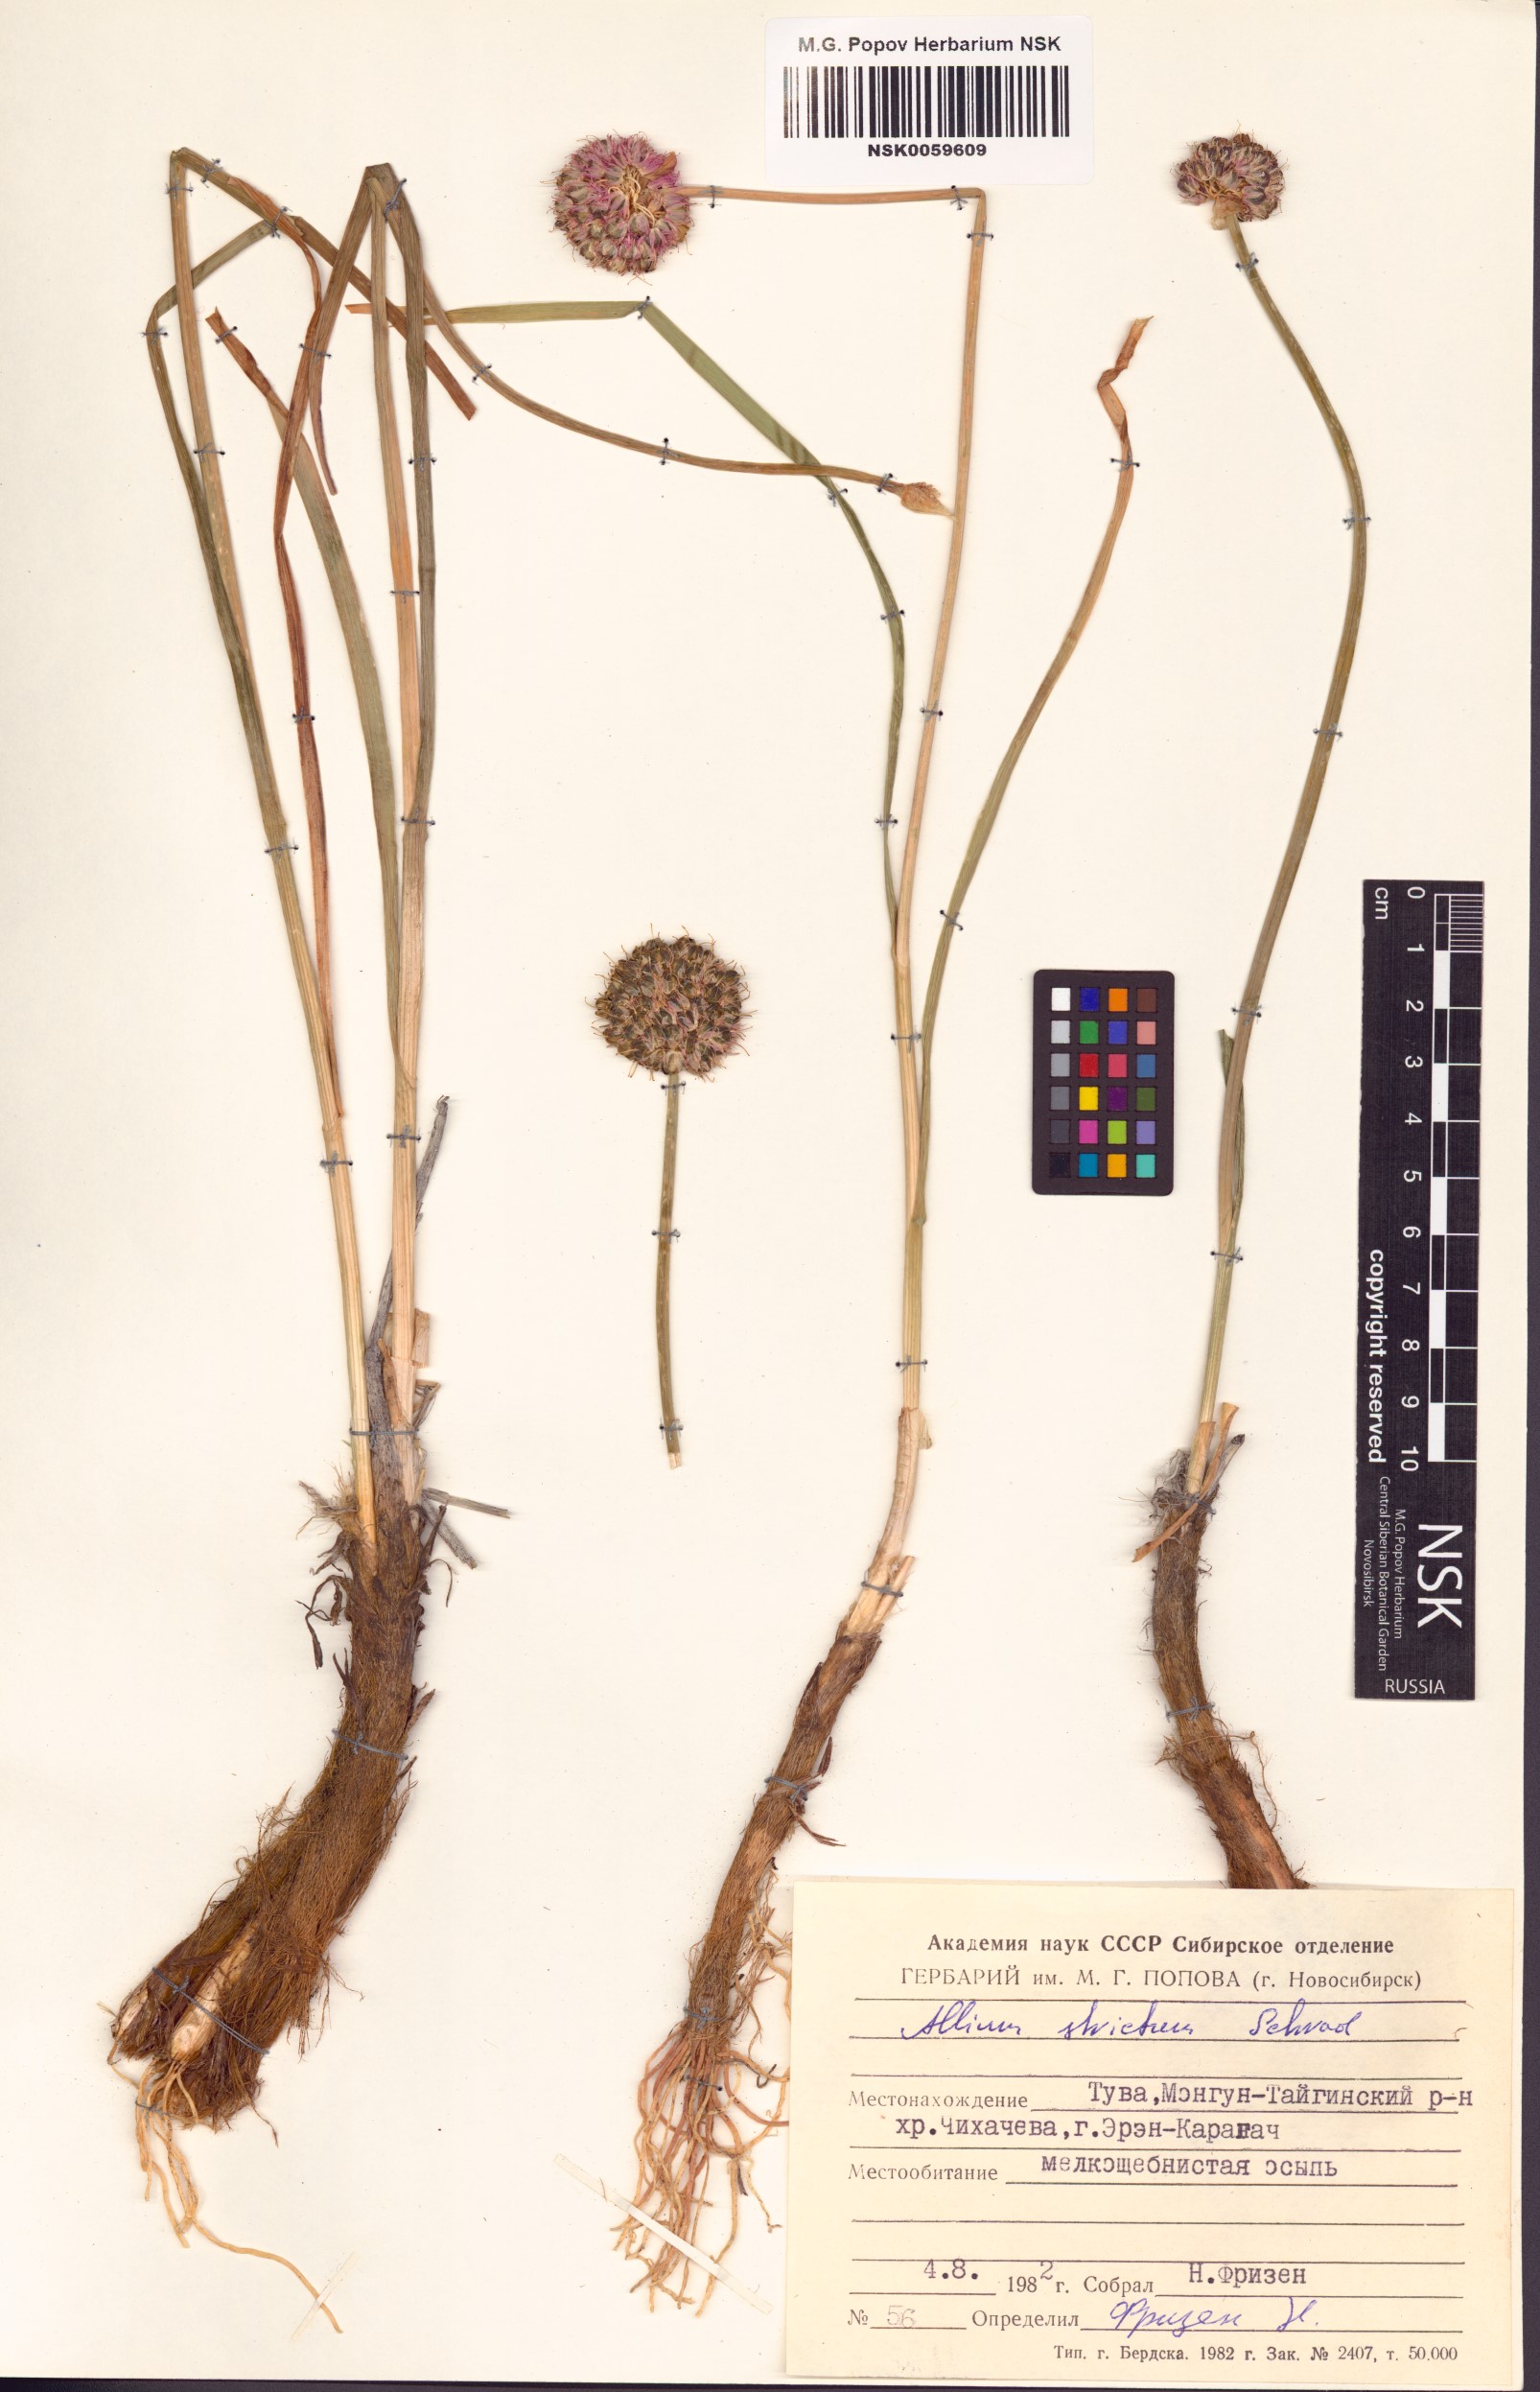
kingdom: Plantae
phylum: Tracheophyta
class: Liliopsida
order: Asparagales
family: Amaryllidaceae
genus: Allium
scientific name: Allium strictum
